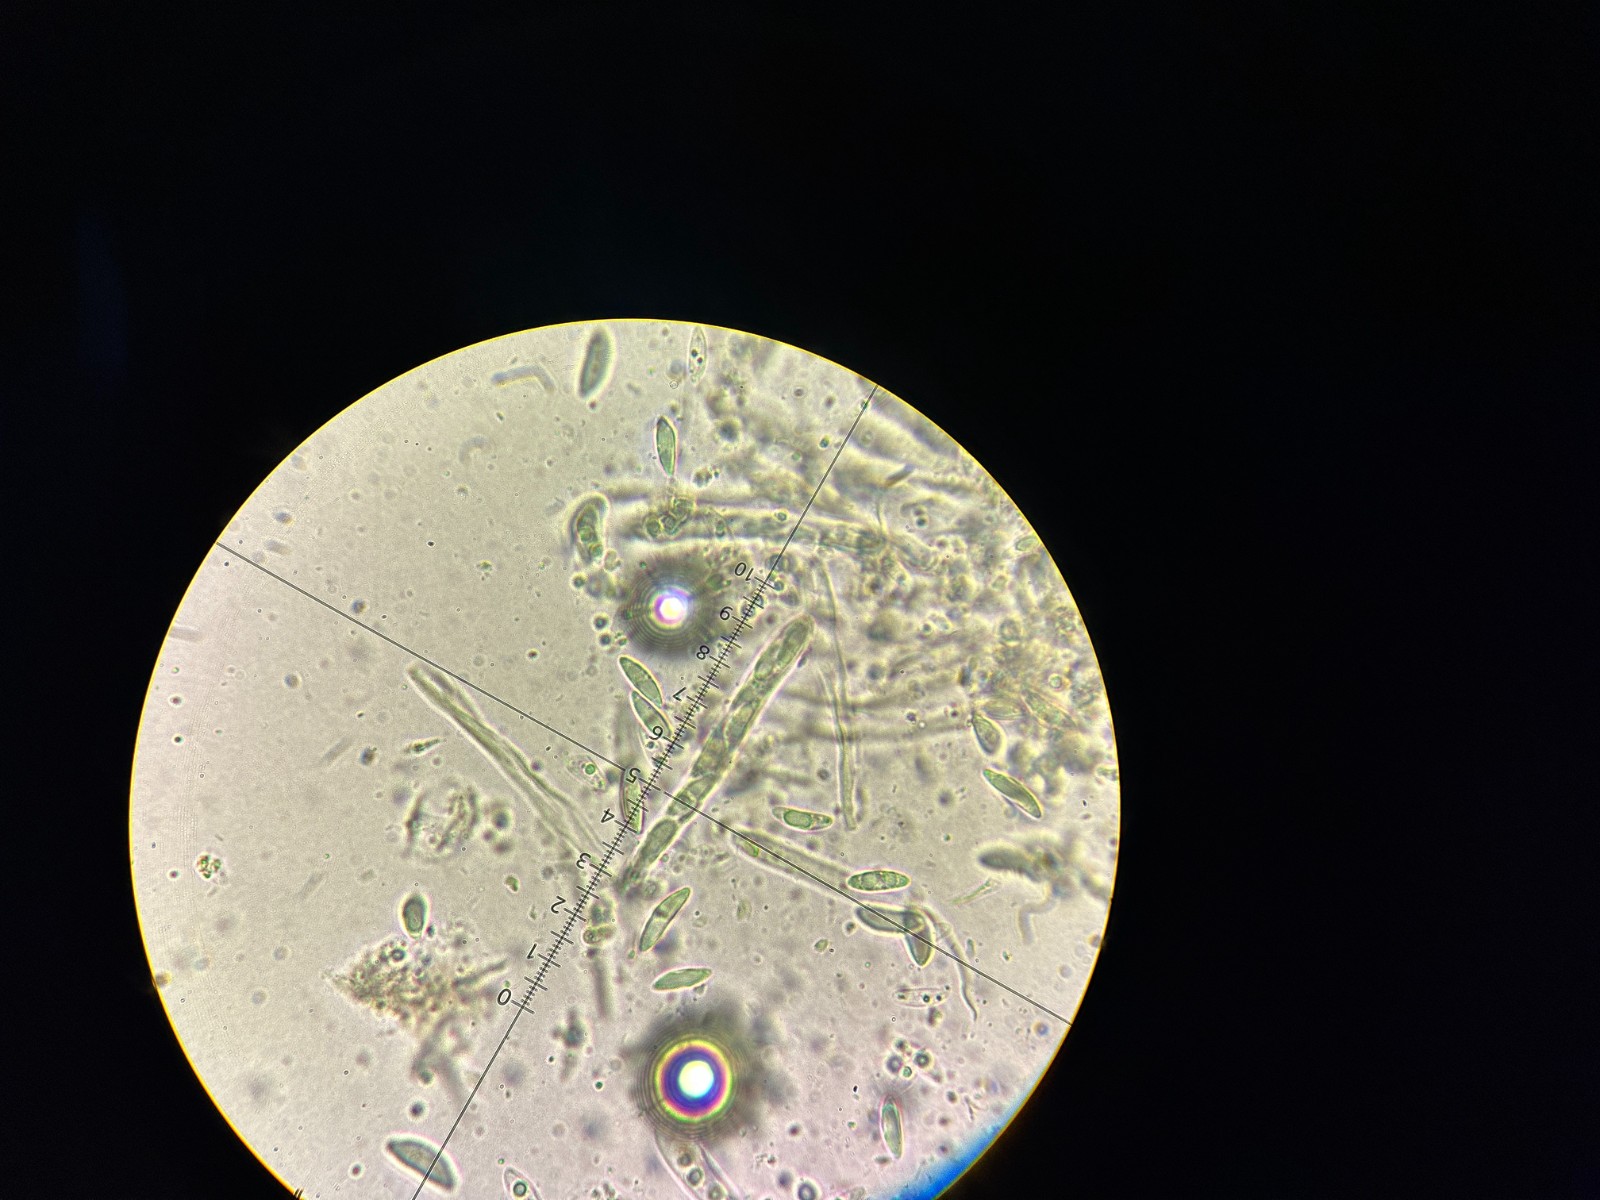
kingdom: Fungi
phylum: Ascomycota
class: Leotiomycetes
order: Leotiales
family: Leotiaceae
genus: Microglossum
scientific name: Microglossum olivaceum
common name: olivenbrun farvetunge
